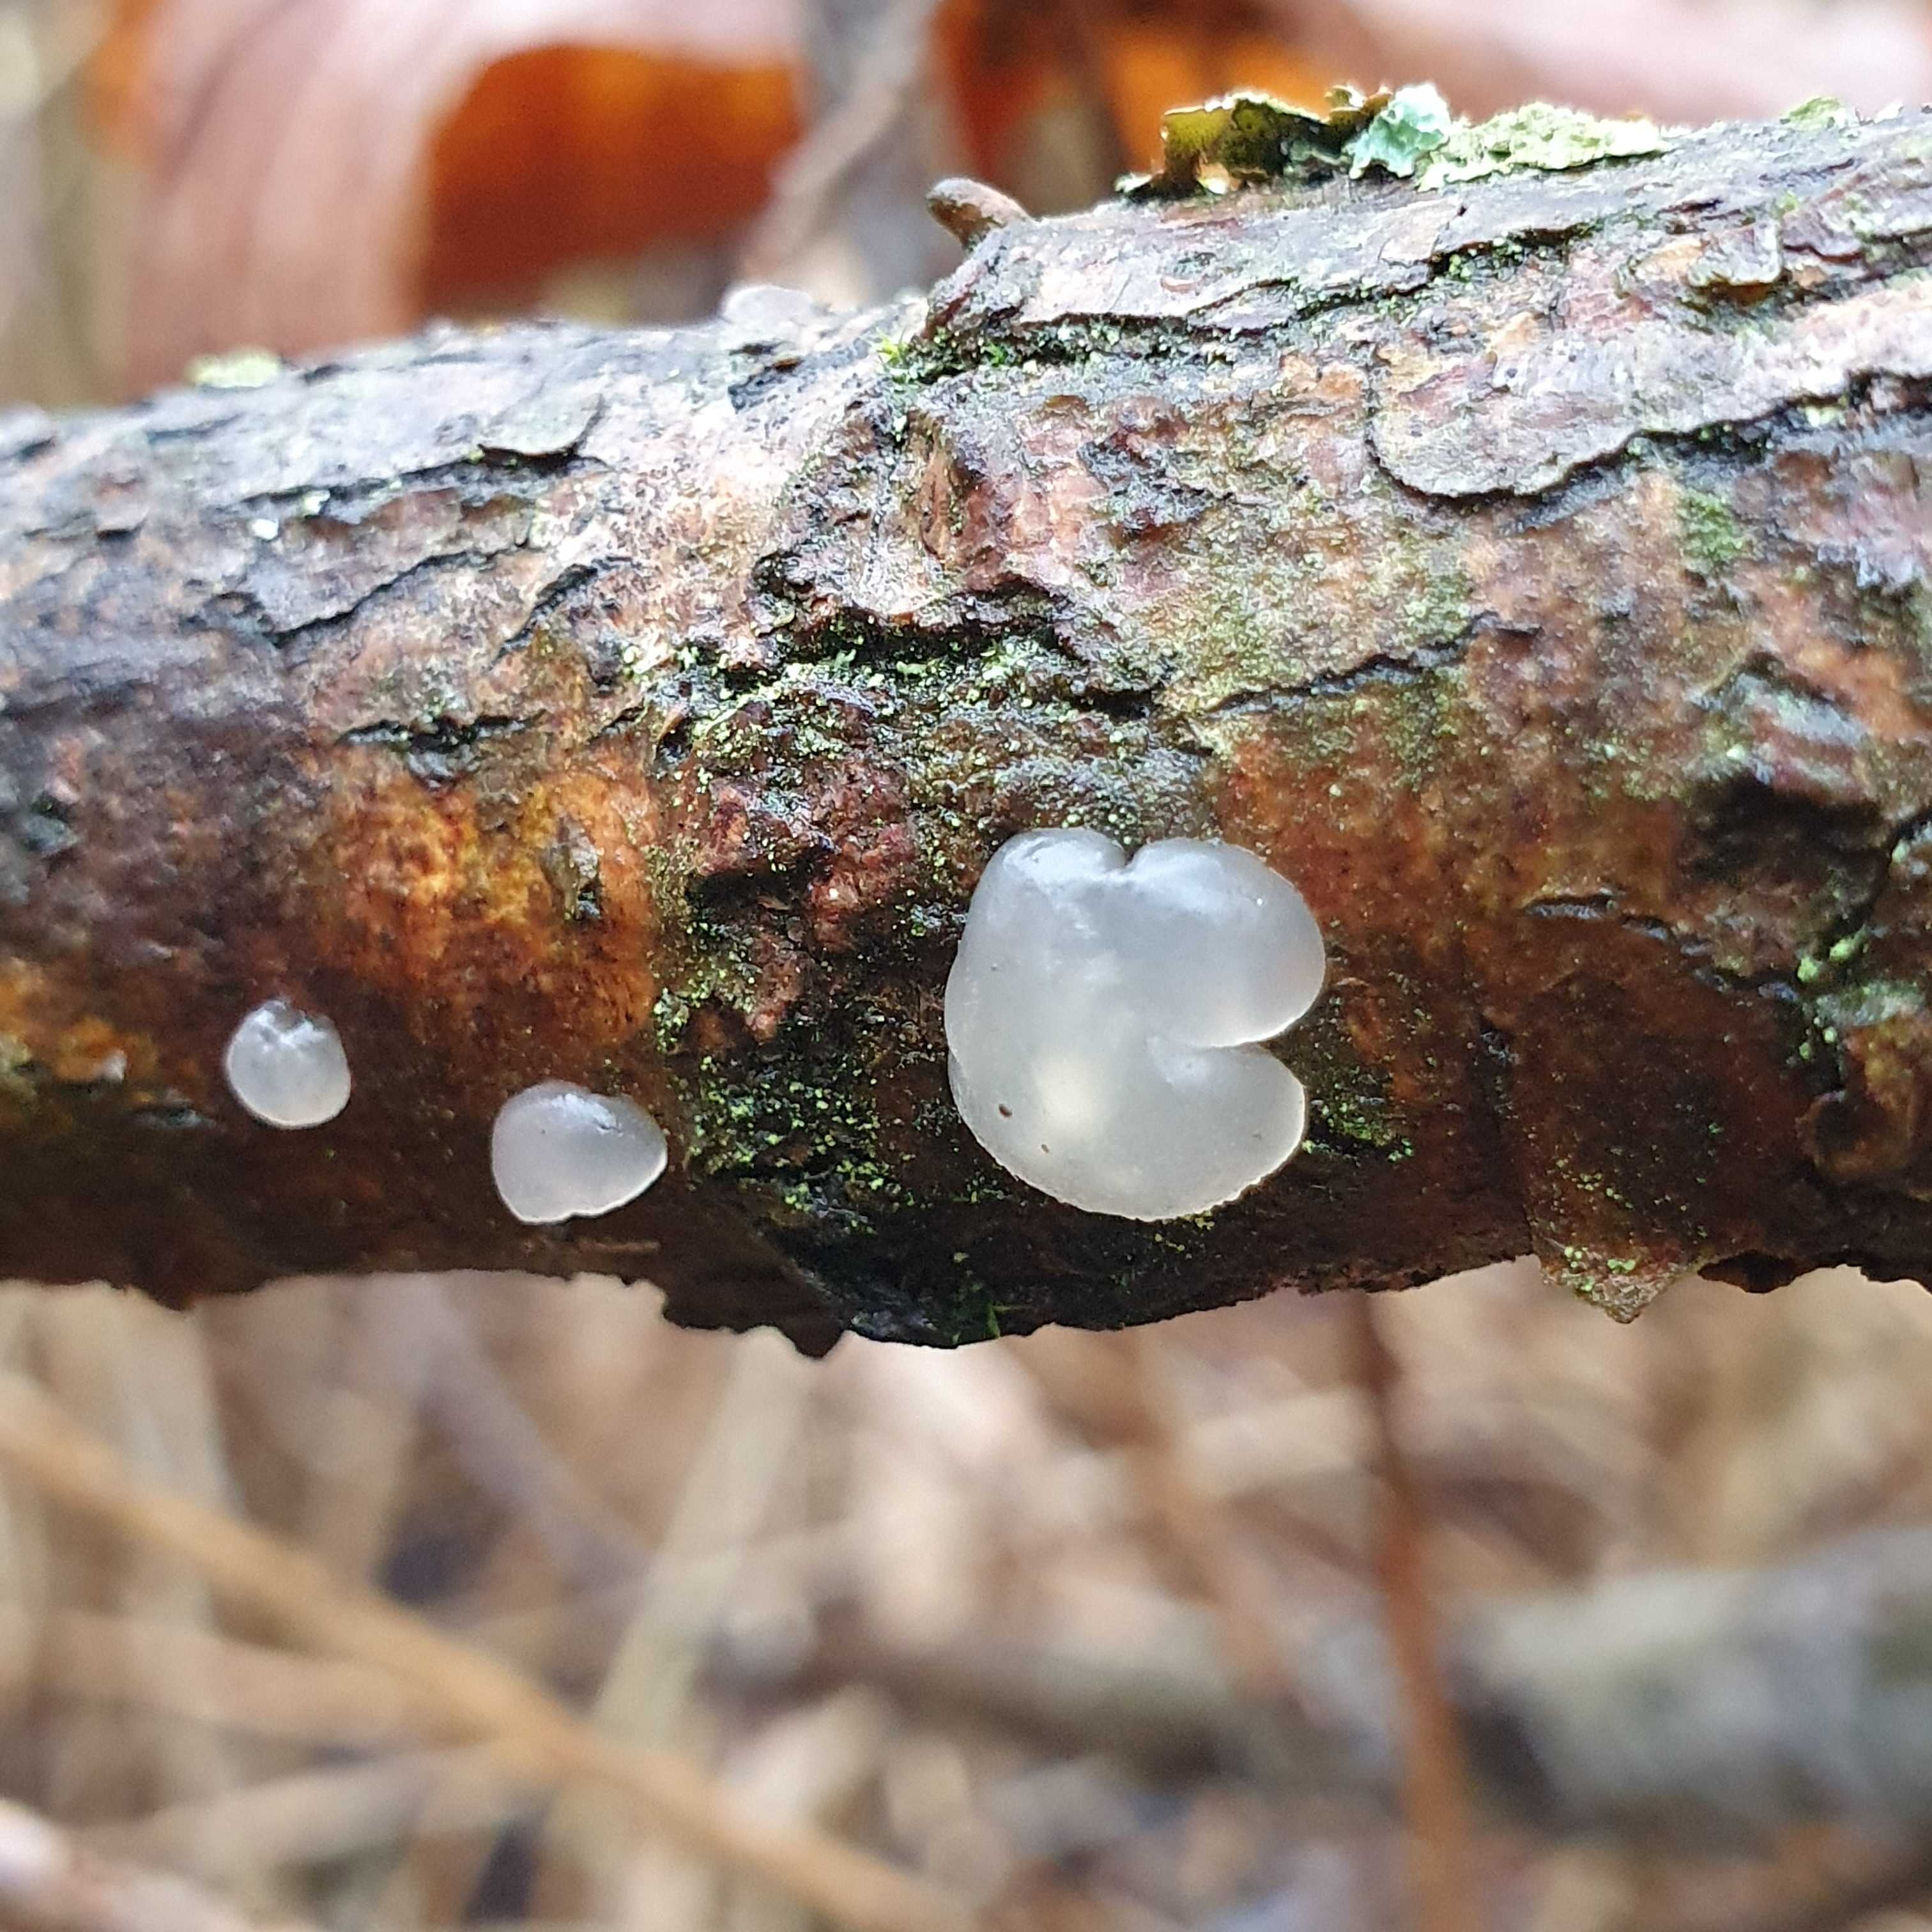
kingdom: Fungi
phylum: Basidiomycota
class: Agaricomycetes
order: Auriculariales
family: Hyaloriaceae
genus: Myxarium
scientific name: Myxarium nucleatum
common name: klar bævretop
